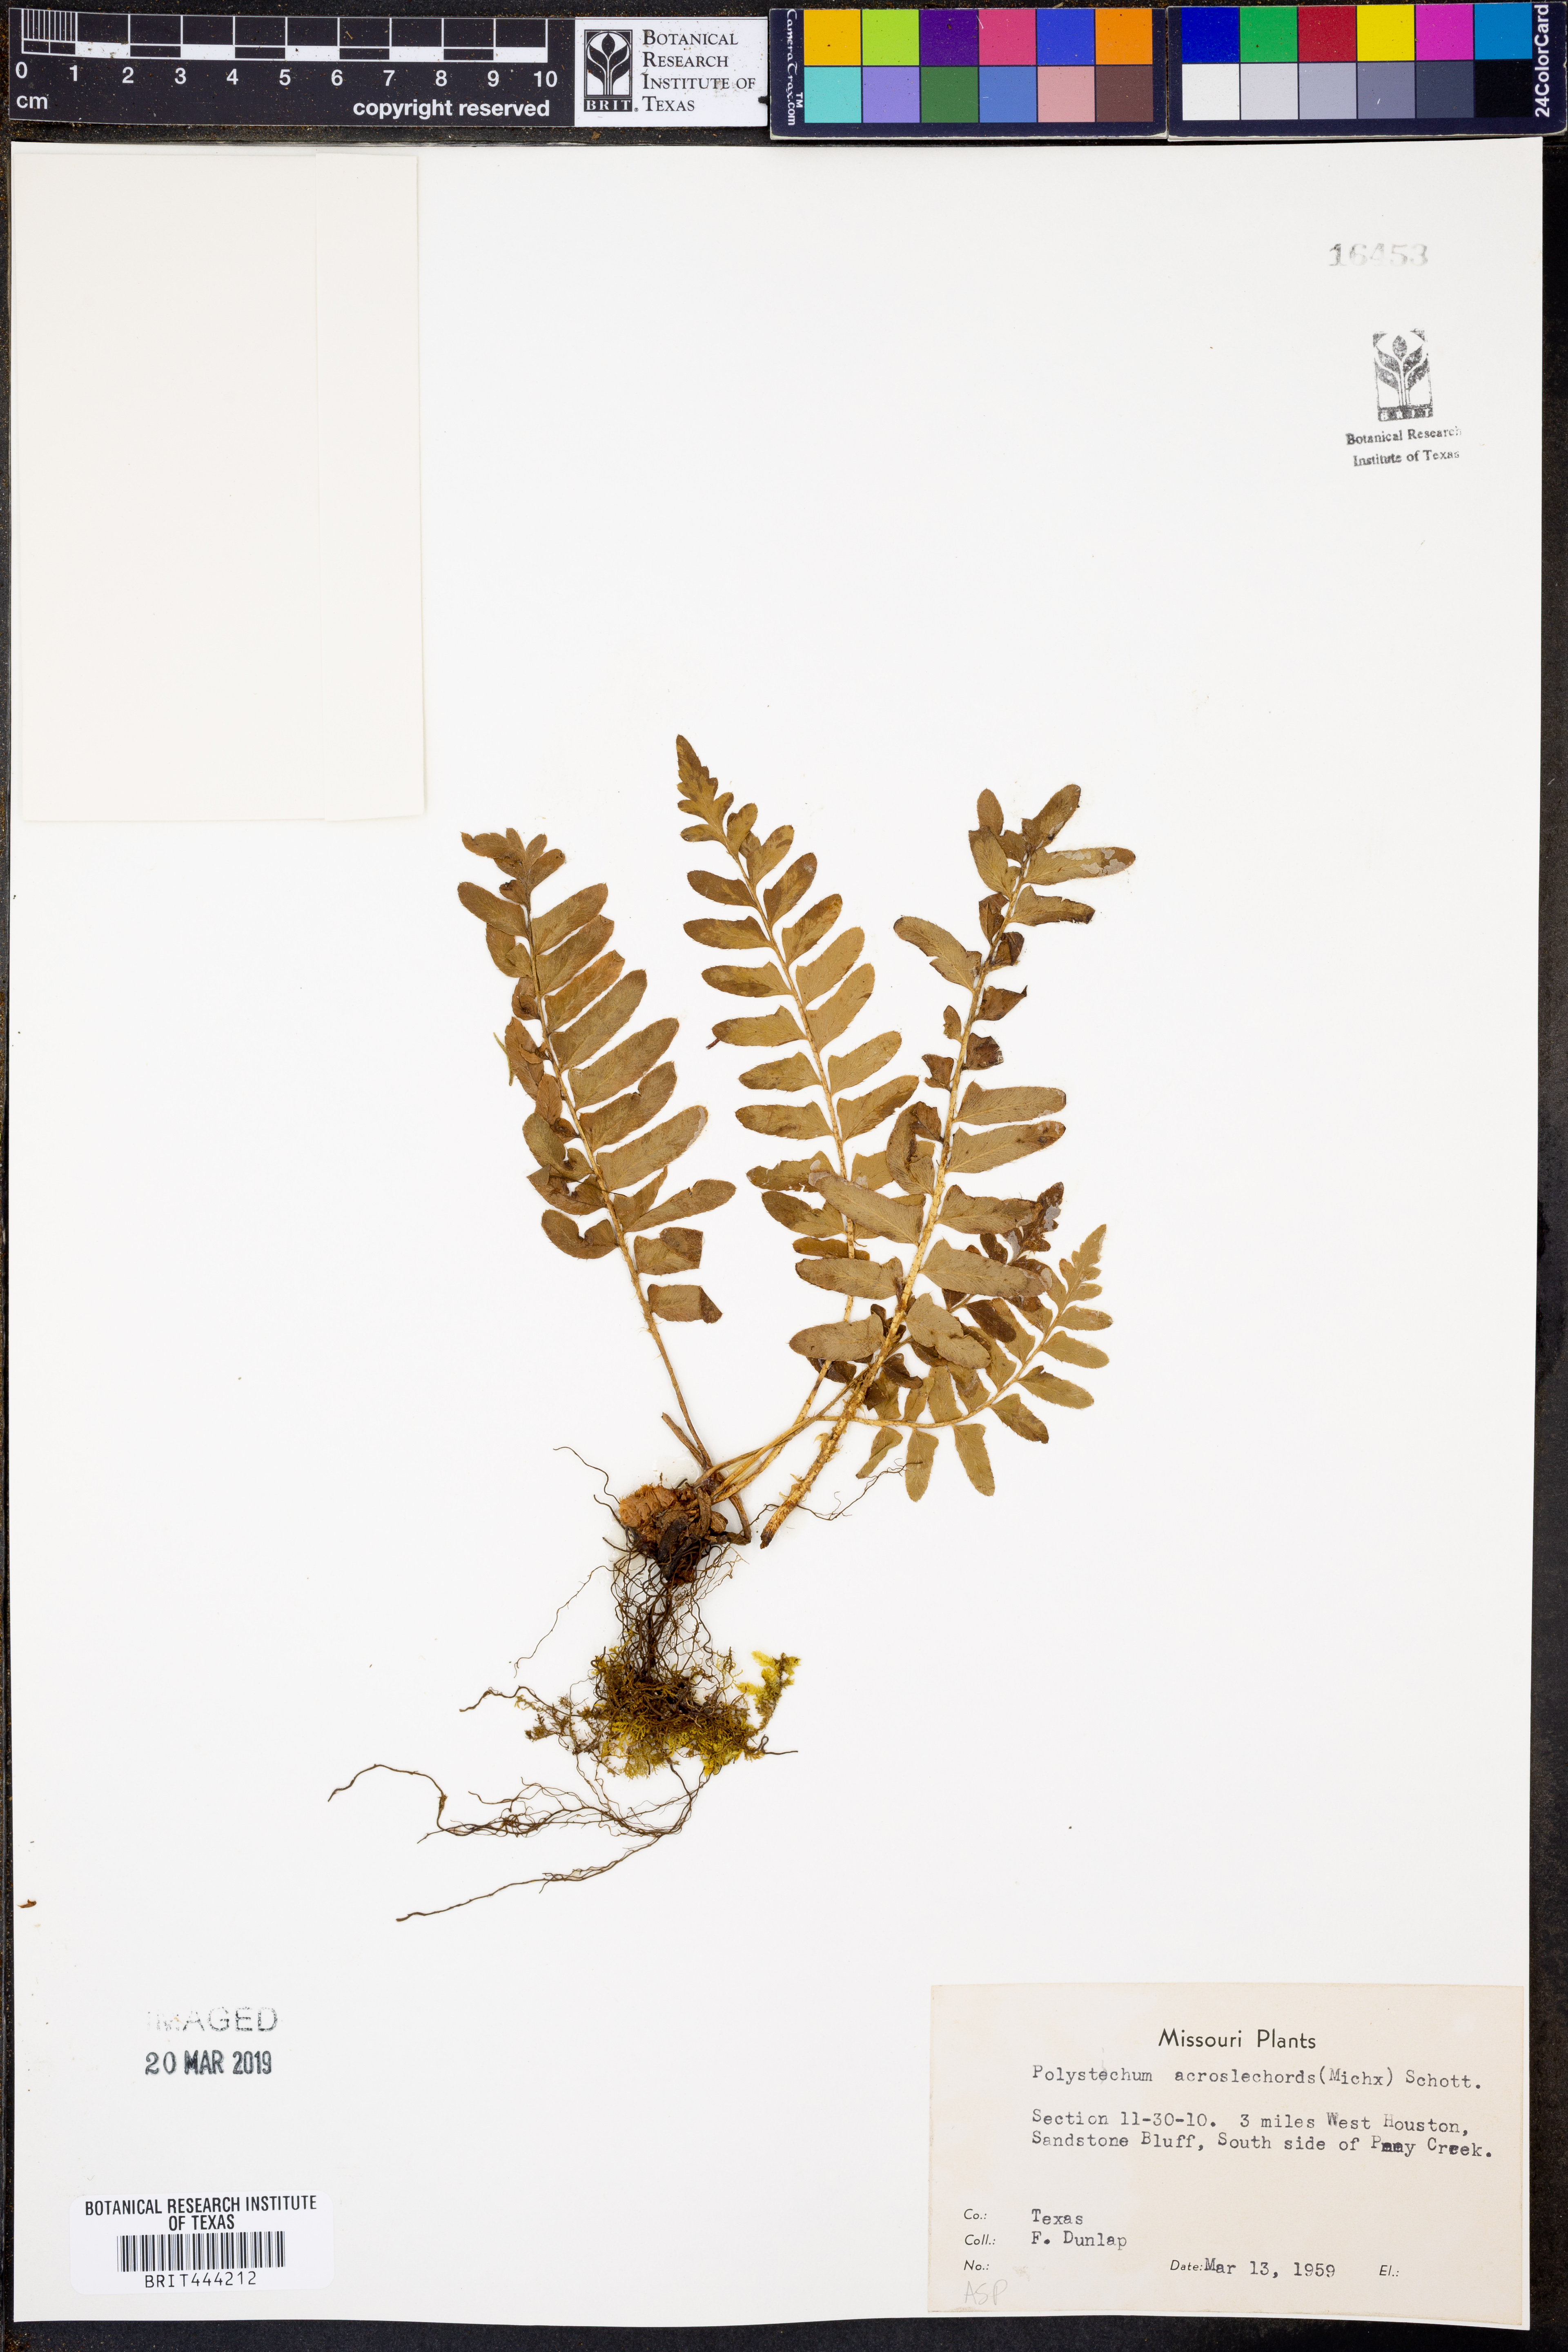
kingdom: Plantae
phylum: Tracheophyta
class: Polypodiopsida
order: Polypodiales
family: Dryopteridaceae
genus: Polystichum
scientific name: Polystichum acrostichoides
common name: Christmas fern
